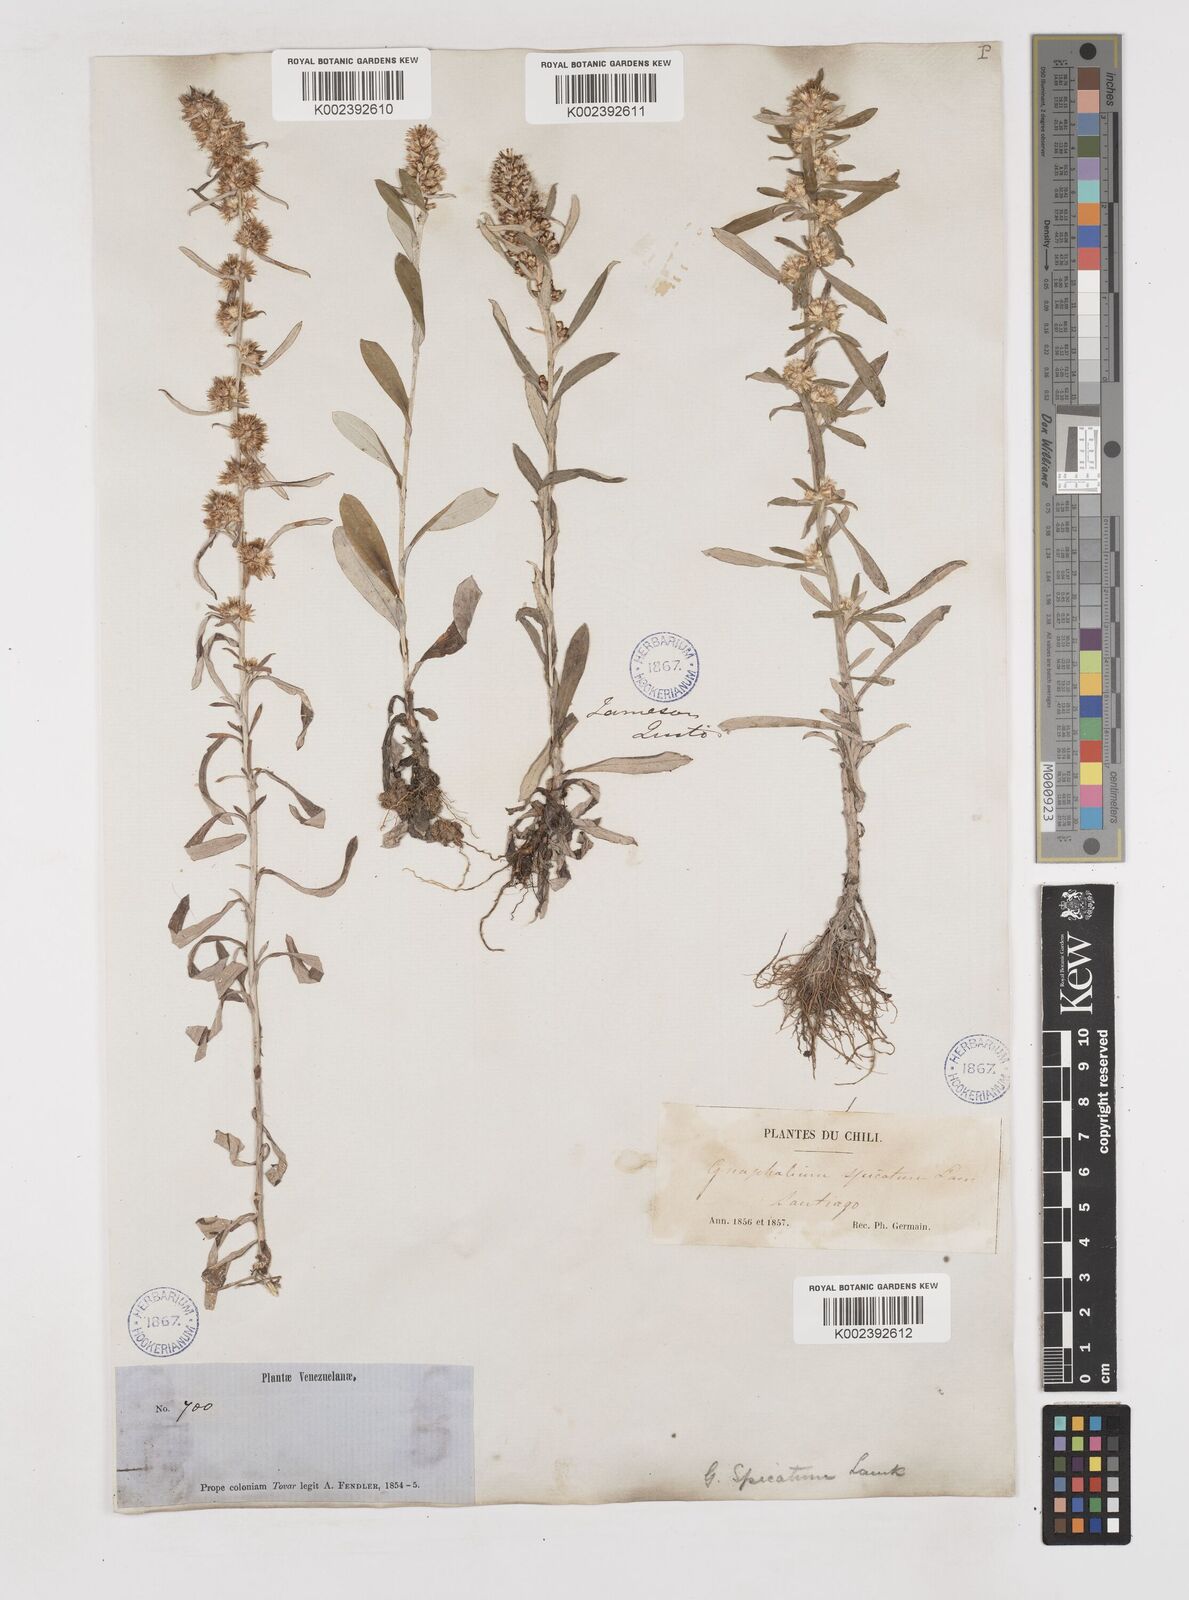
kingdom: Plantae
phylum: Tracheophyta
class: Magnoliopsida
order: Asterales
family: Asteraceae
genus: Gamochaeta
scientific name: Gamochaeta americana
